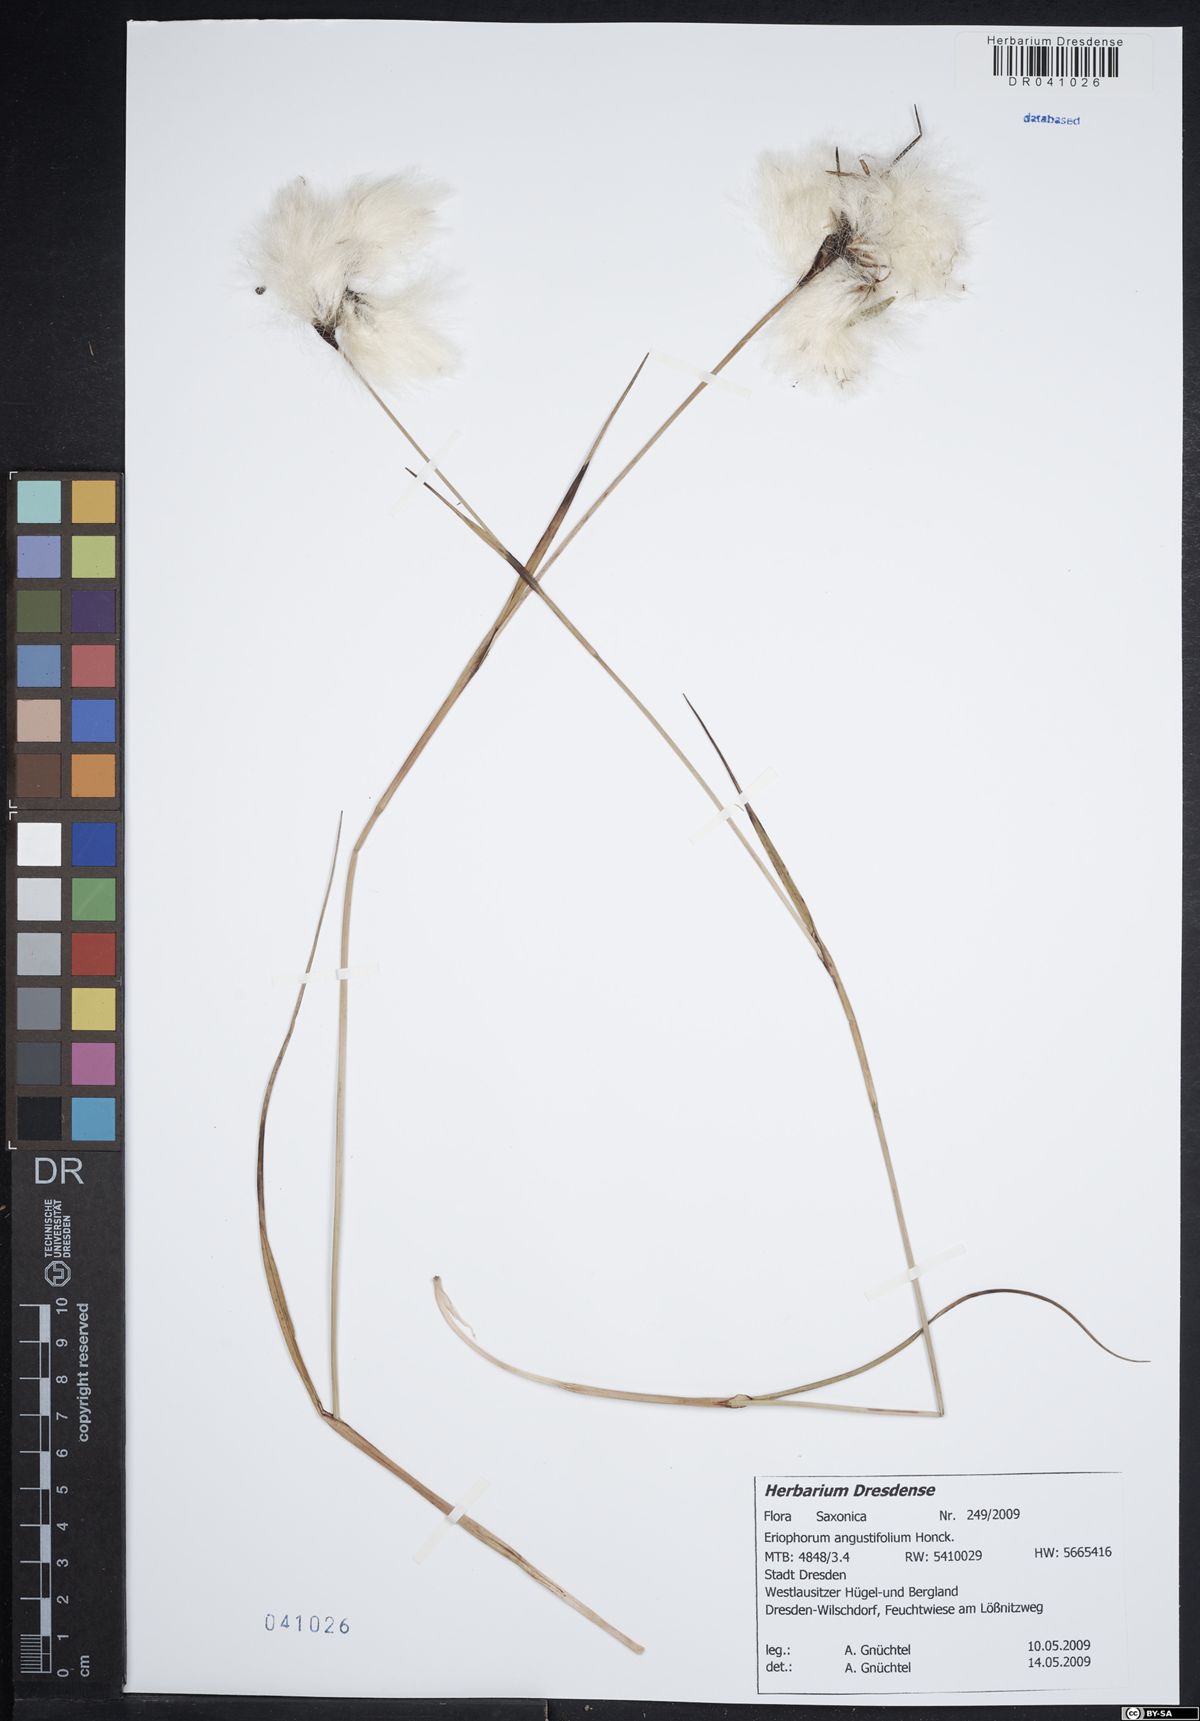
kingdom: Plantae
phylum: Tracheophyta
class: Liliopsida
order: Poales
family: Cyperaceae
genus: Eriophorum
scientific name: Eriophorum angustifolium
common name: Common cottongrass
